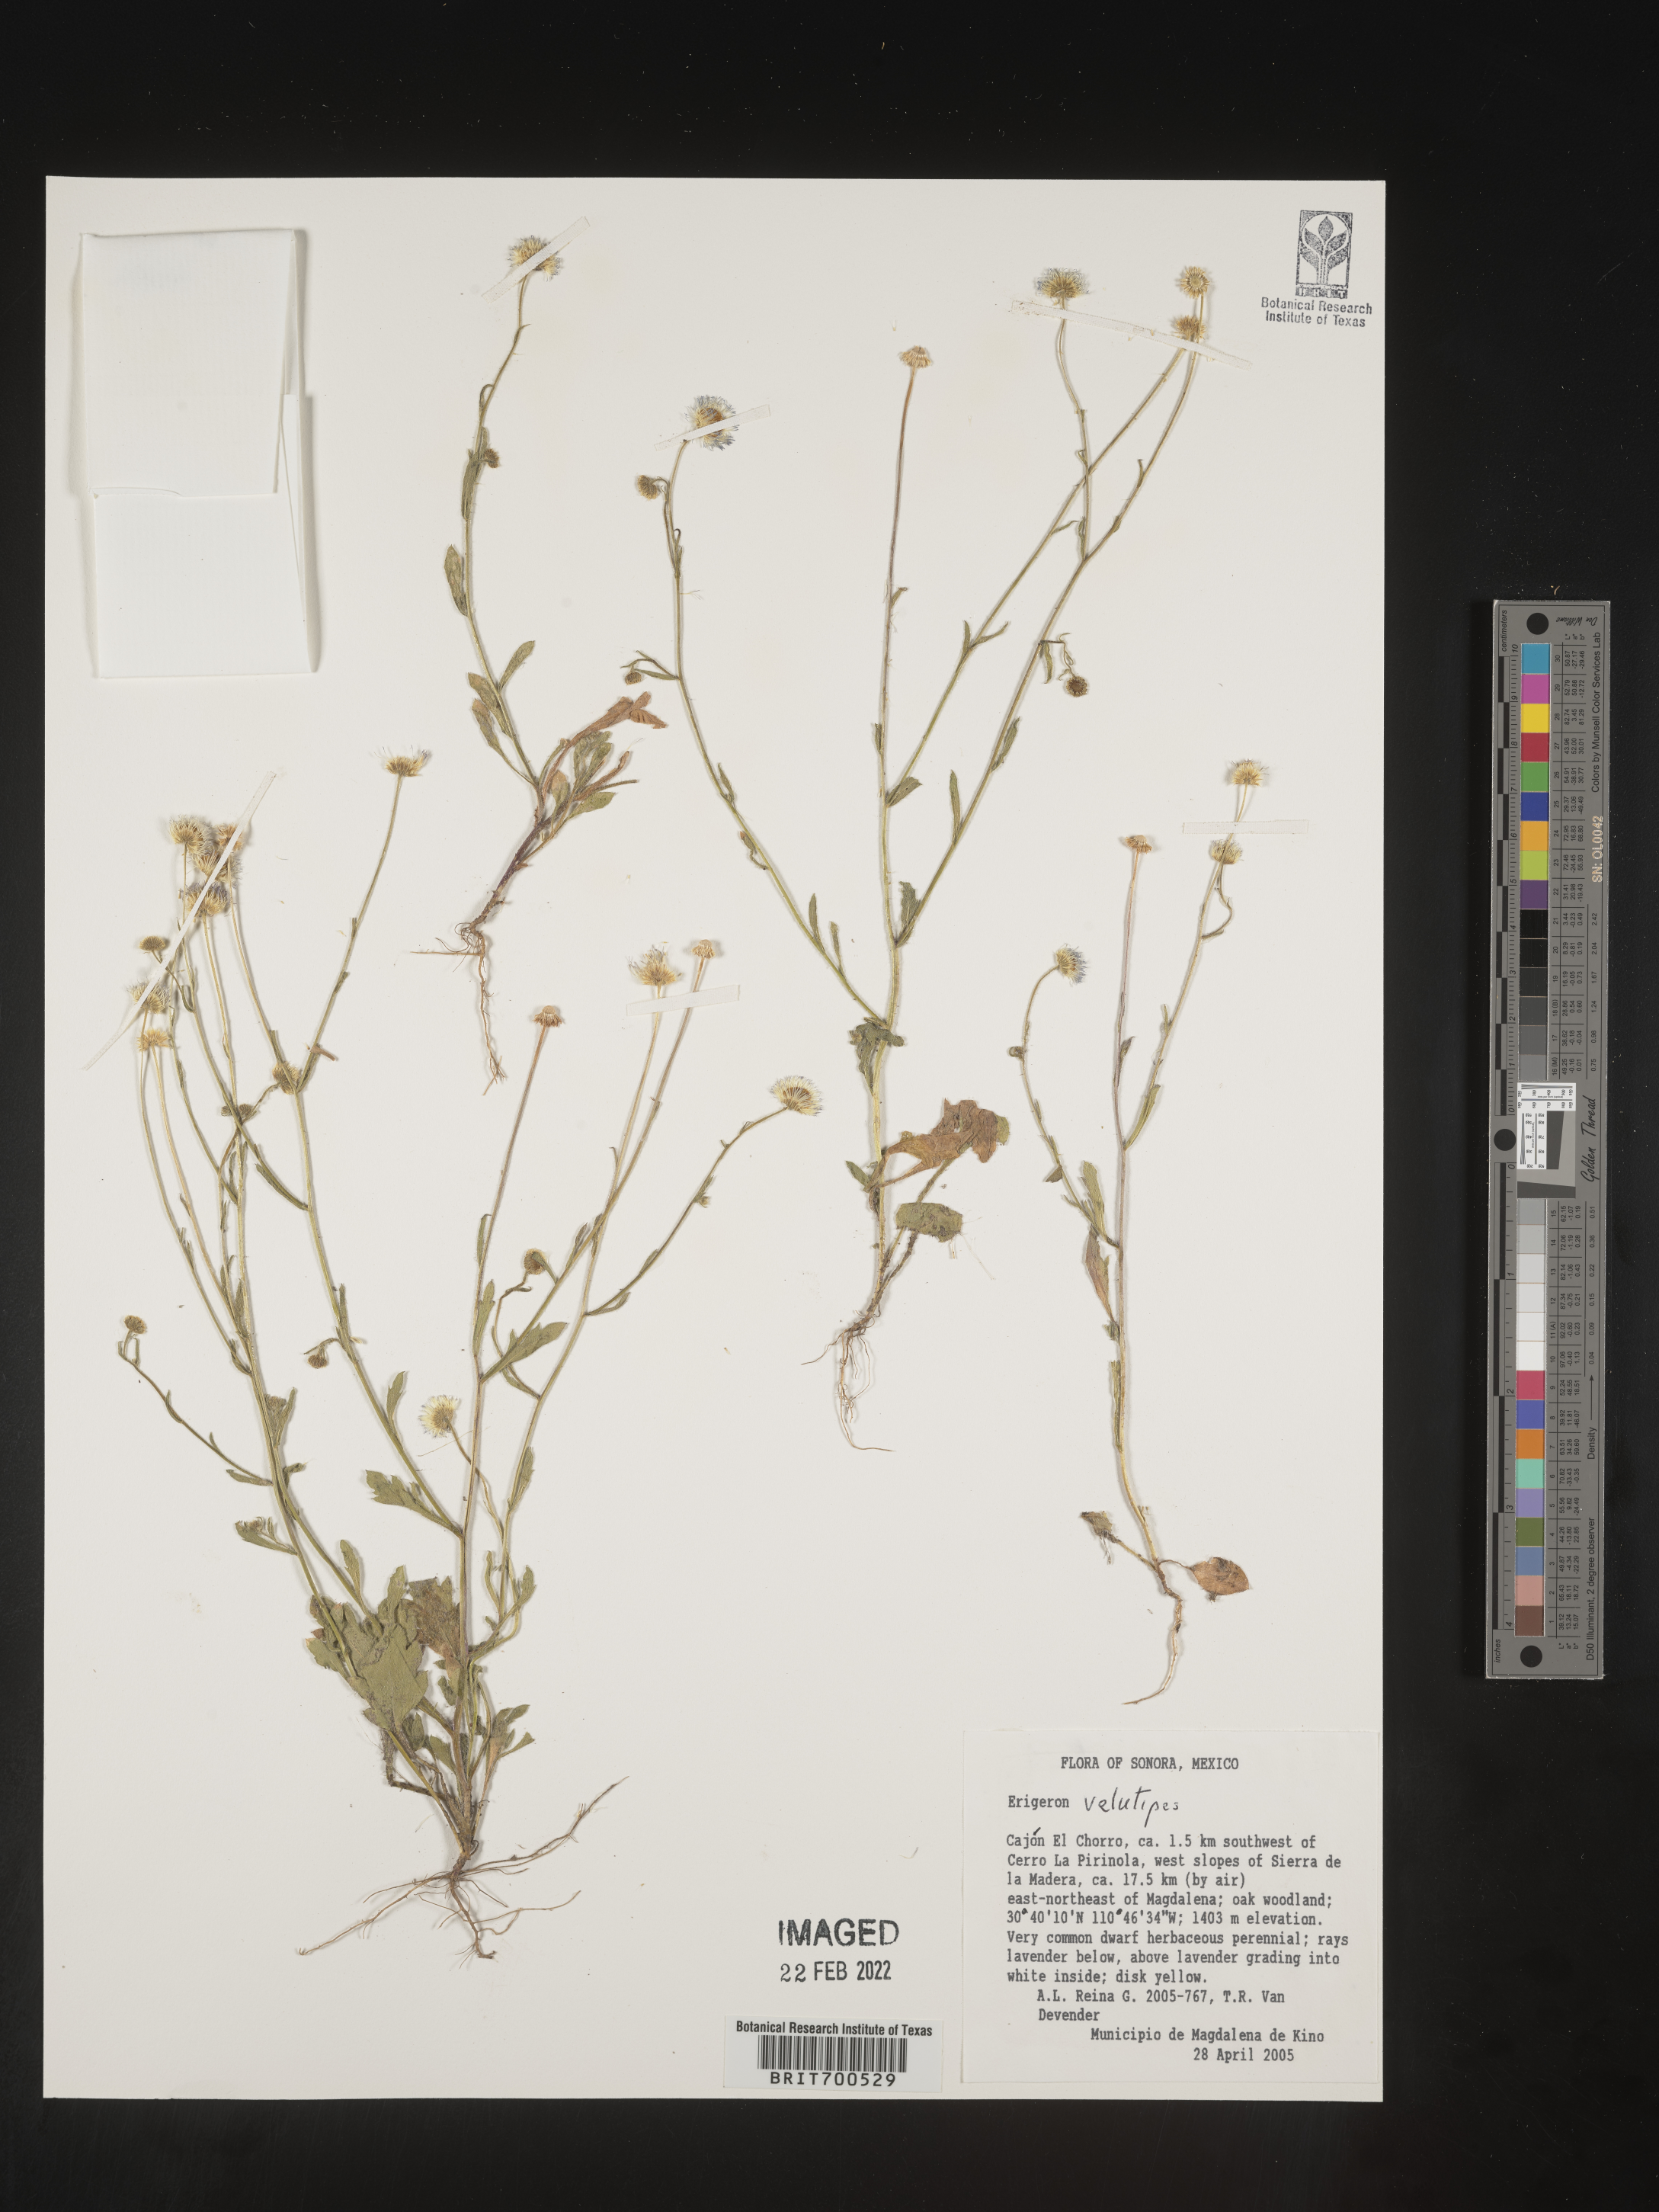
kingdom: Plantae
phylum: Tracheophyta
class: Magnoliopsida
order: Asterales
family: Asteraceae
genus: Erigeron
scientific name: Erigeron velutipes
